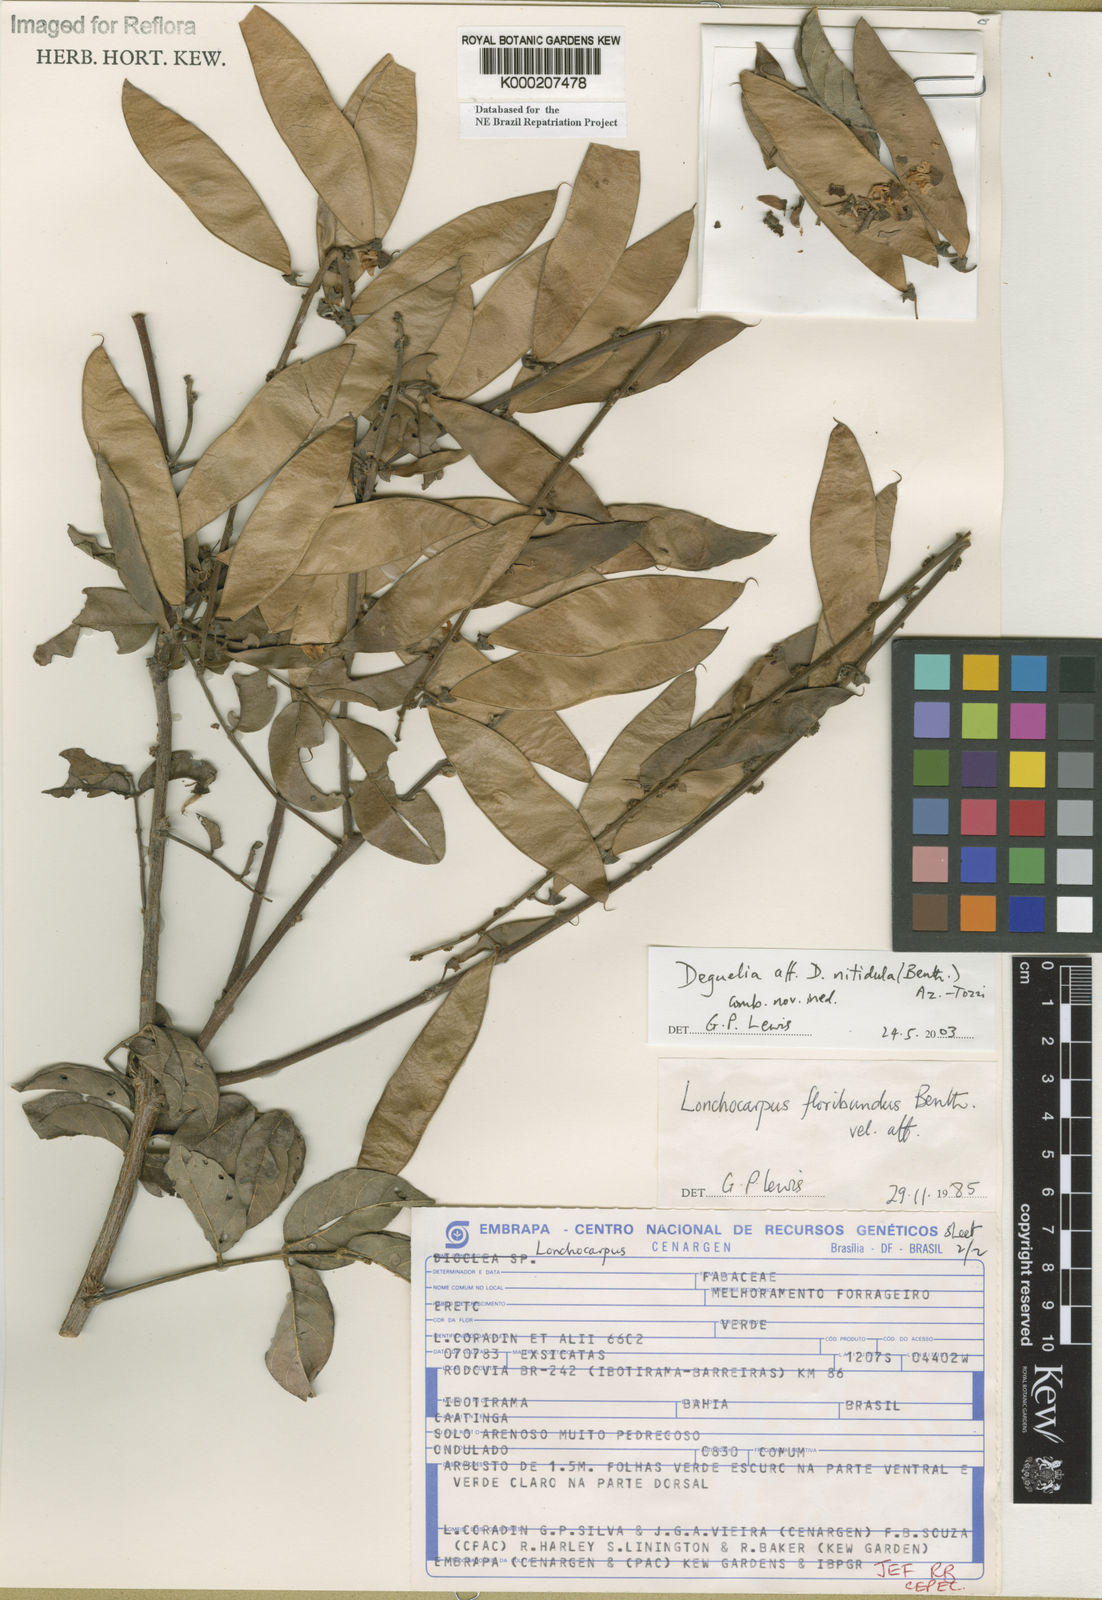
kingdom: Plantae
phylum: Tracheophyta
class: Magnoliopsida
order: Fabales
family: Fabaceae
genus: Deguelia
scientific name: Deguelia
